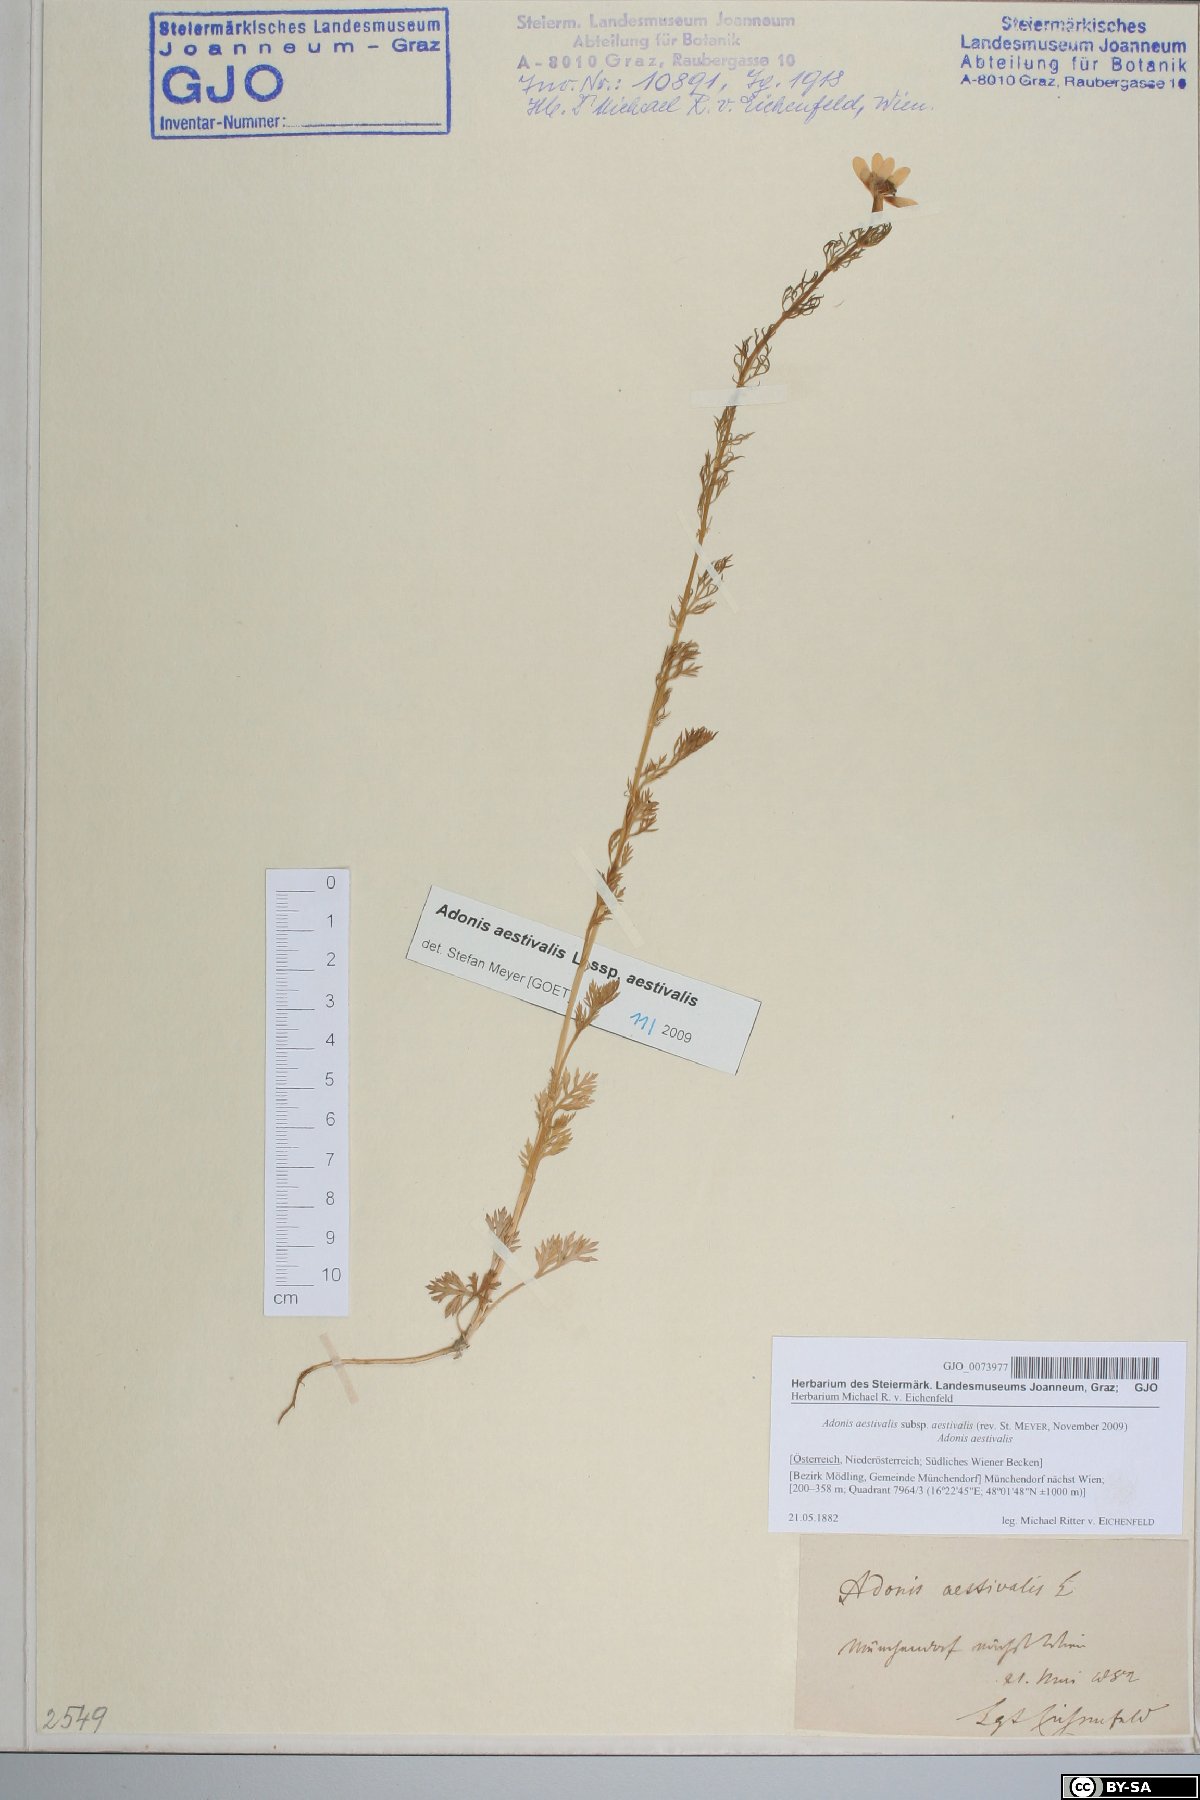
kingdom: Plantae
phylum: Tracheophyta
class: Magnoliopsida
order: Ranunculales
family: Ranunculaceae
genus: Adonis
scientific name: Adonis aestivalis
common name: Summer pheasant's-eye
